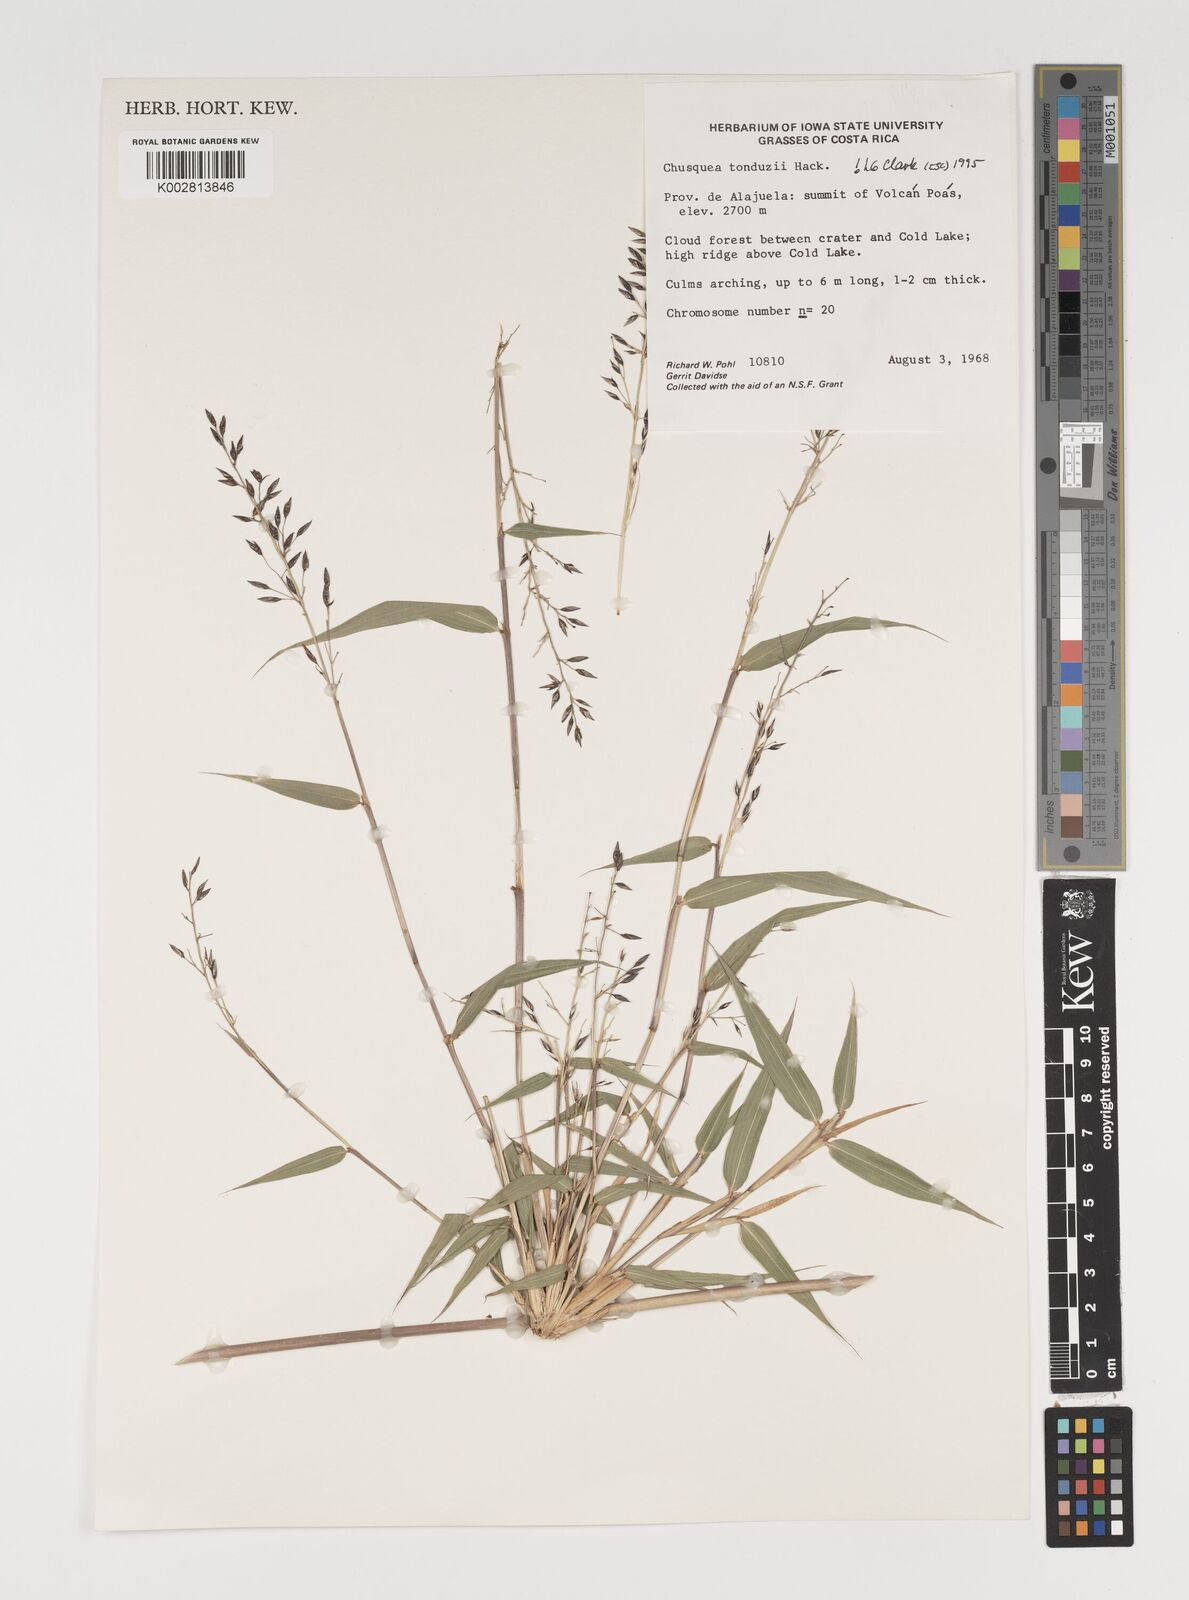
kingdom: Plantae
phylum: Tracheophyta
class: Liliopsida
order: Poales
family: Poaceae
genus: Chusquea
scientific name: Chusquea tonduzii
